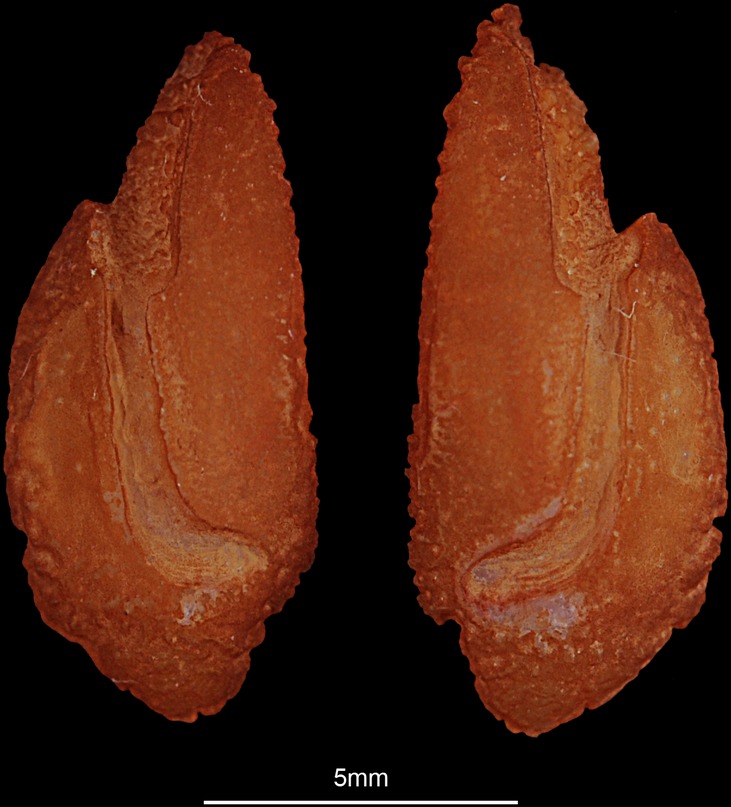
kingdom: Animalia
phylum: Chordata
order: Perciformes
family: Datnioididae
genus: Datnioides
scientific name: Datnioides microlepis
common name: Finescale tigerfish
